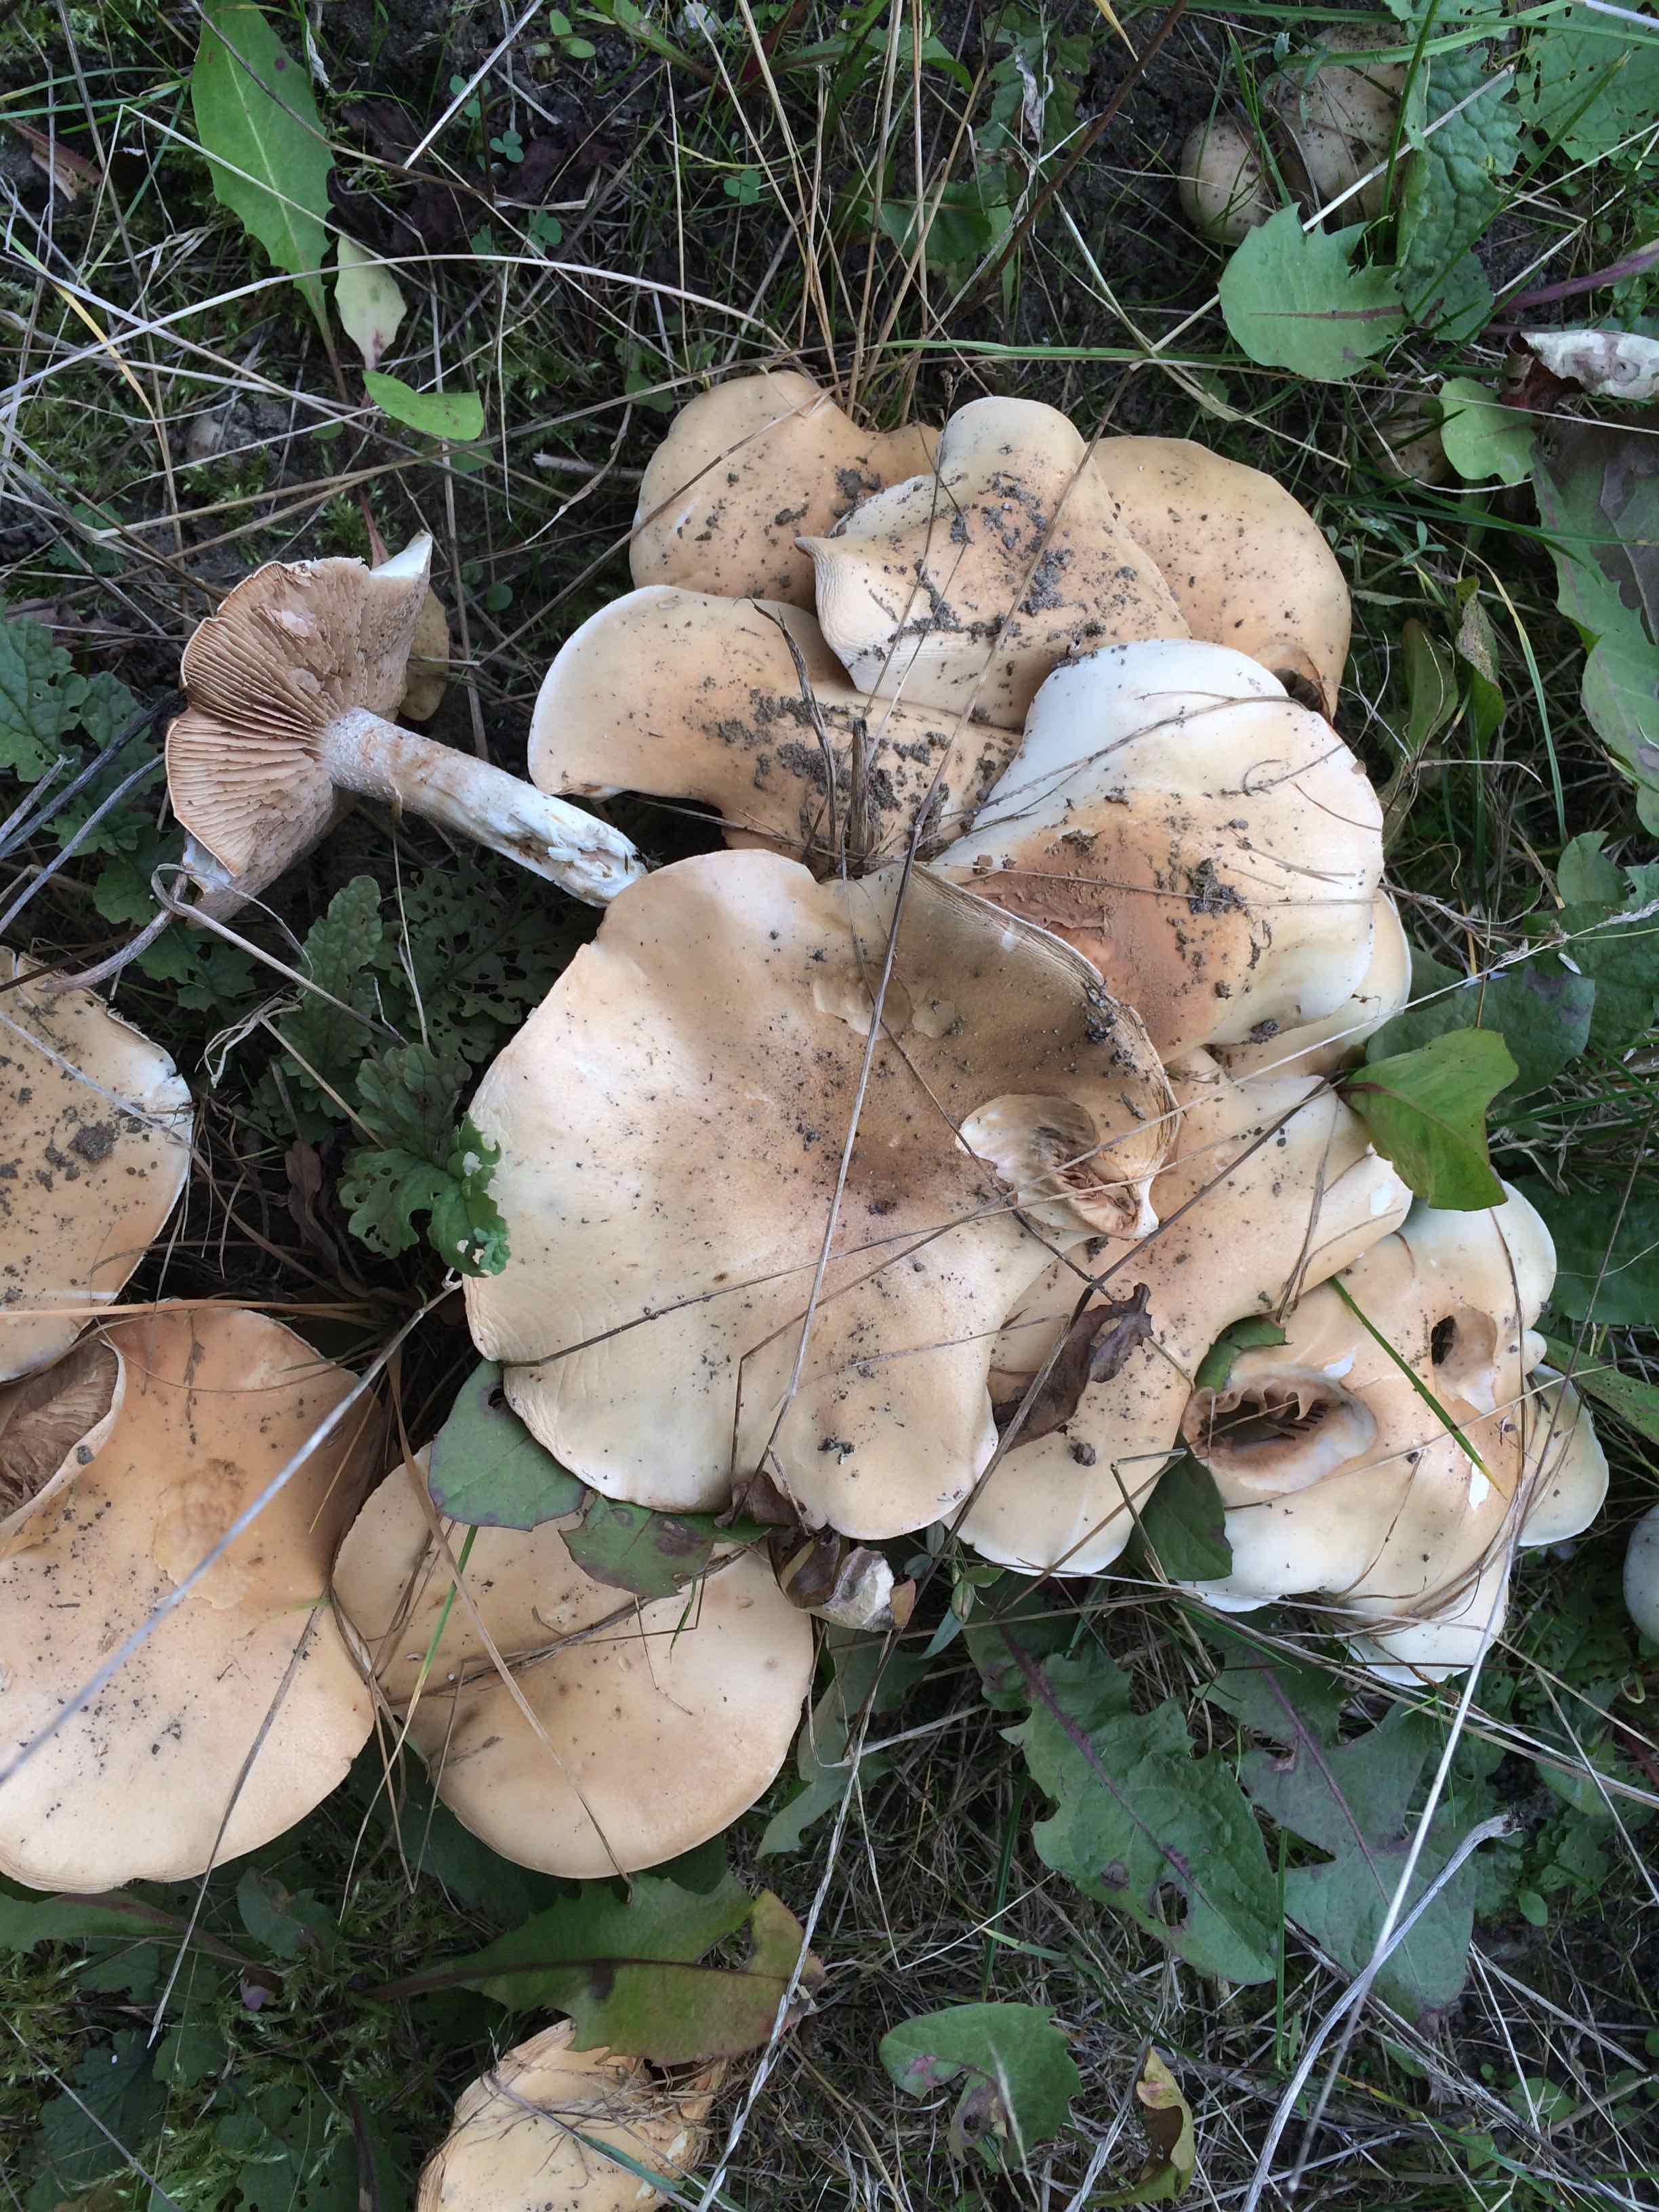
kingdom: Fungi
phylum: Basidiomycota
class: Agaricomycetes
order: Agaricales
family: Hymenogastraceae
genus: Hebeloma
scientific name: Hebeloma sinapizans
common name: ræddike-tåreblad
